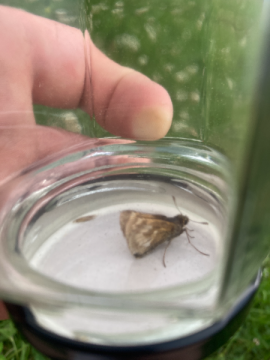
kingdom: Animalia
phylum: Arthropoda
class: Insecta
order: Lepidoptera
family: Hesperiidae
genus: Polites
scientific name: Polites
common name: Long Dash Skipper
